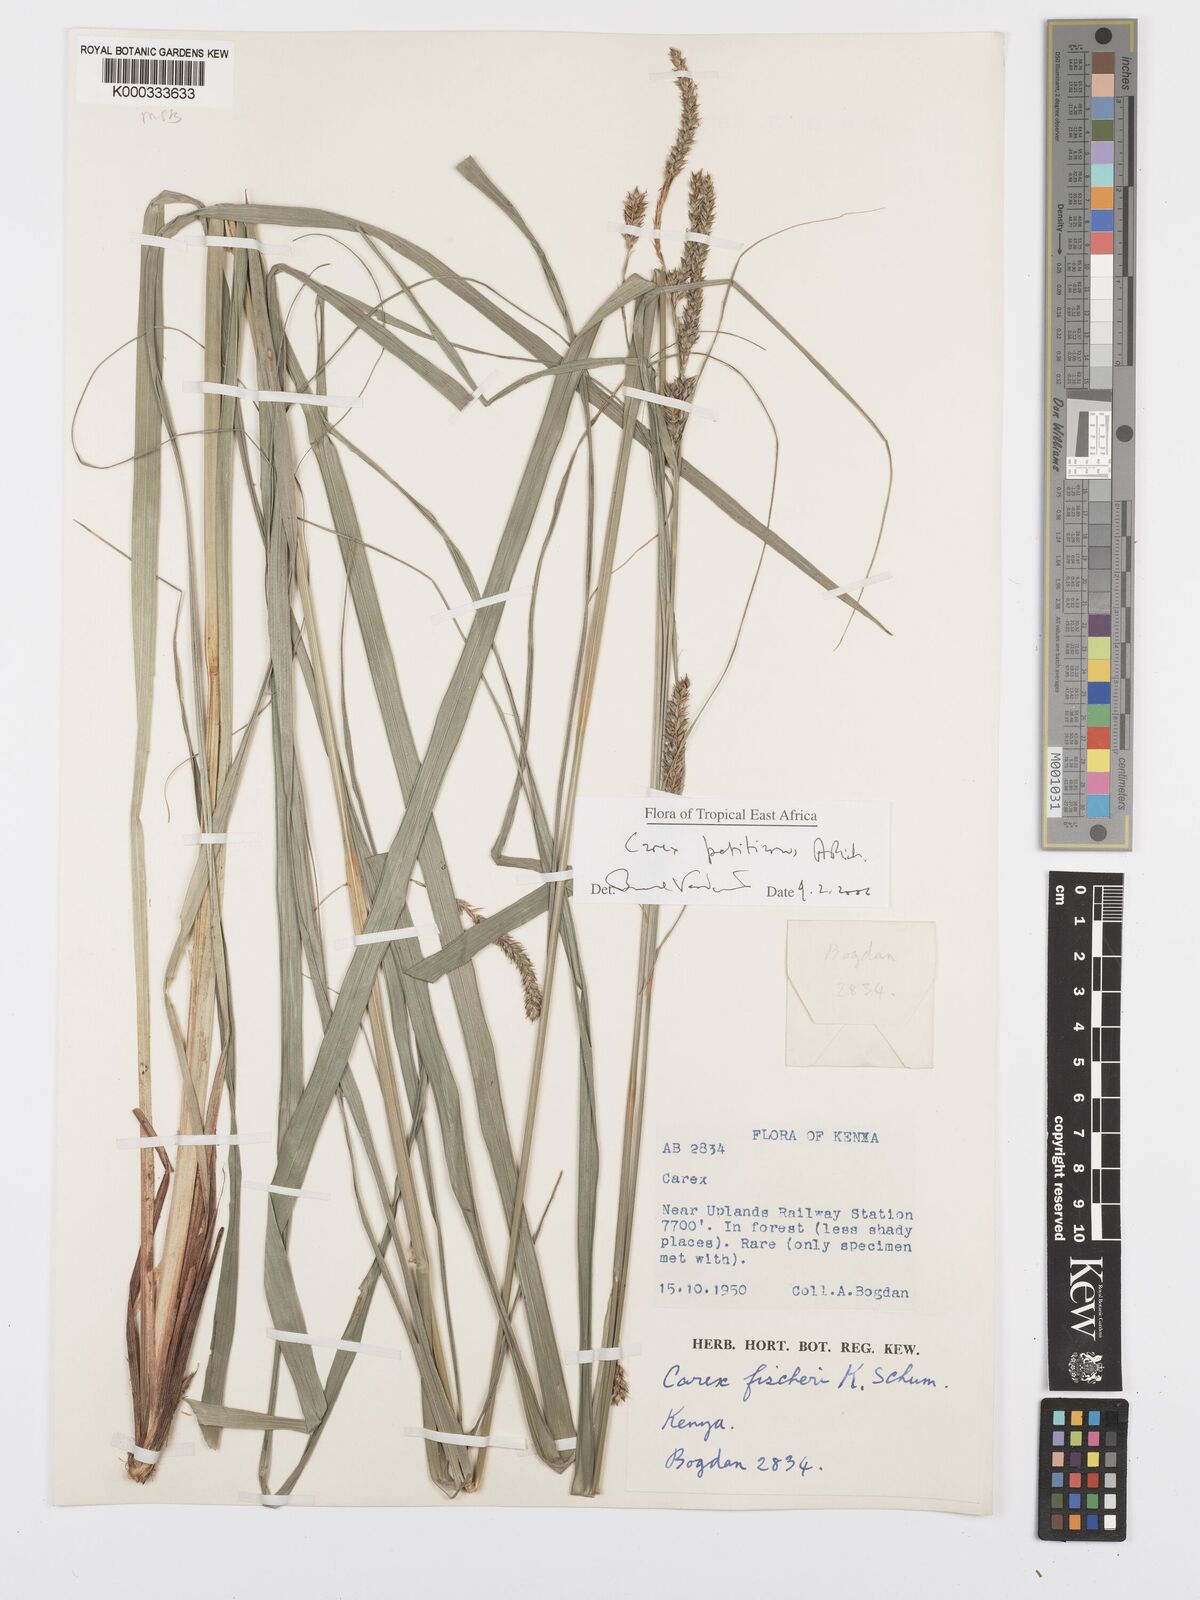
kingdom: Plantae
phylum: Tracheophyta
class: Liliopsida
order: Poales
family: Cyperaceae
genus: Carex
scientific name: Carex petitiana
